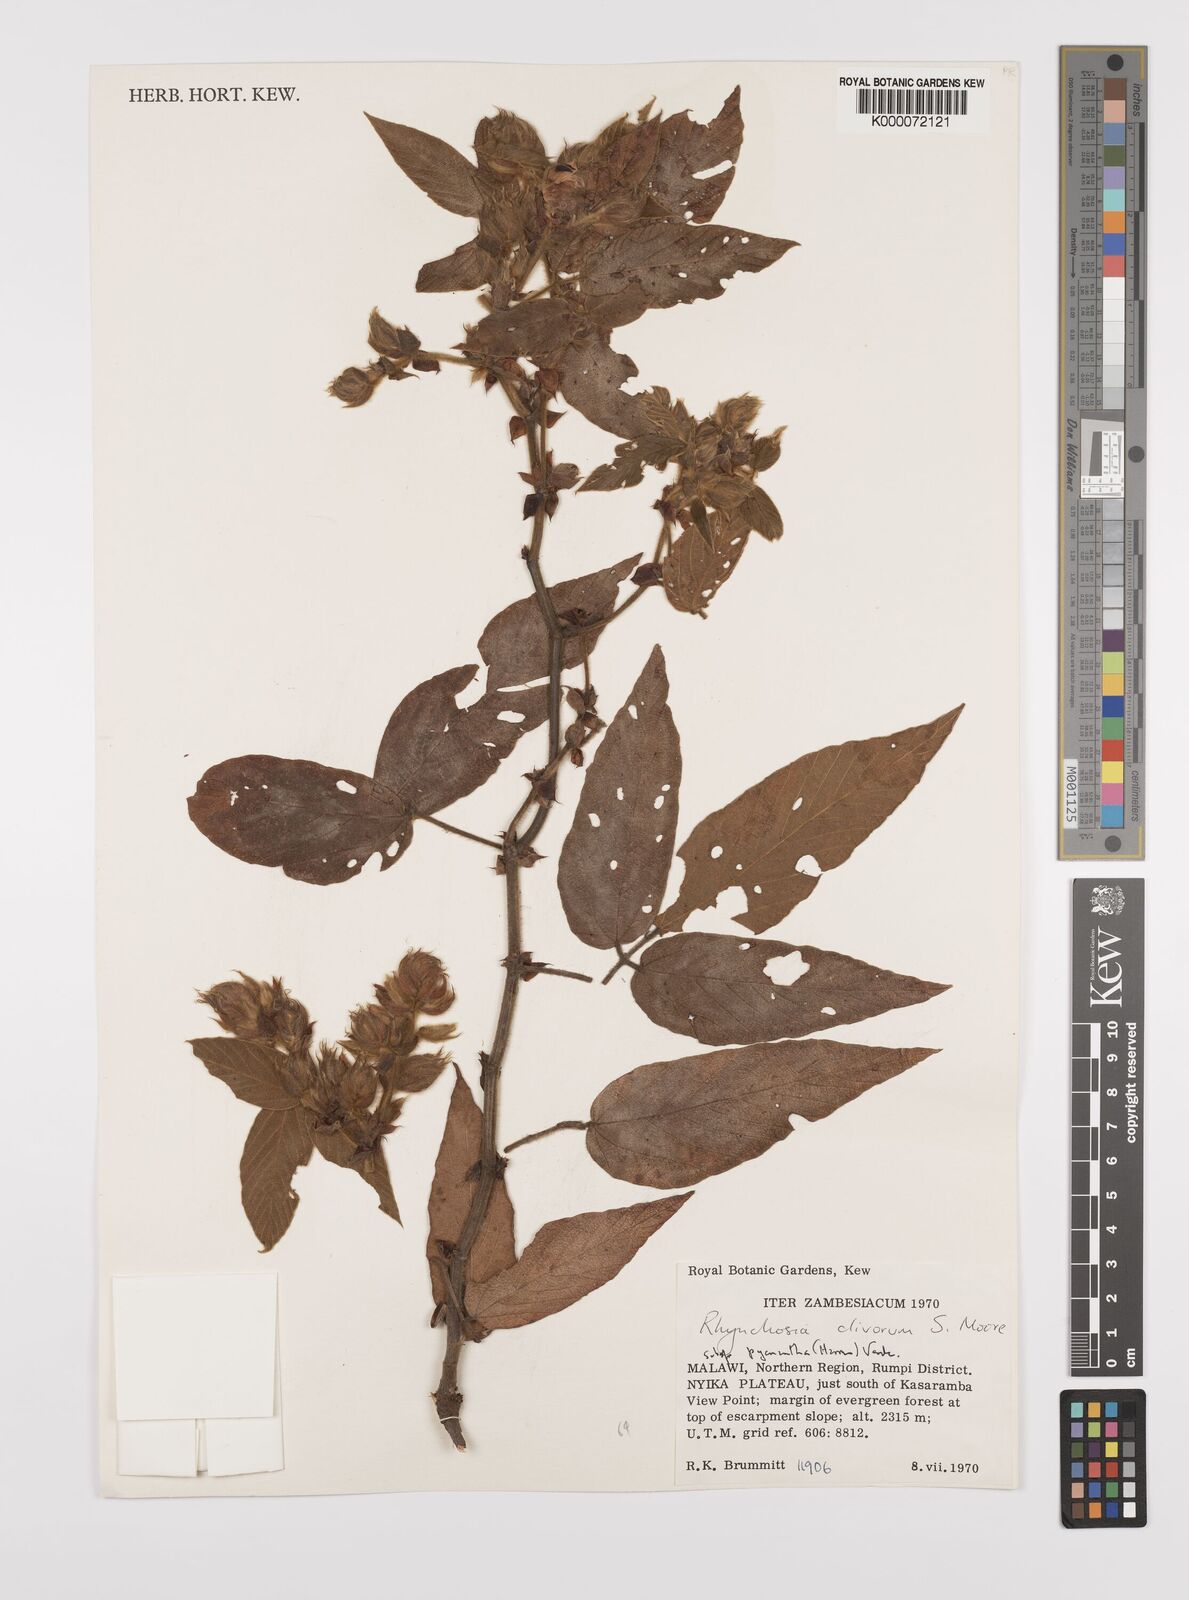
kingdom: Plantae
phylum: Tracheophyta
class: Magnoliopsida
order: Fabales
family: Fabaceae
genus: Rhynchosia
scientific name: Rhynchosia clivorum
